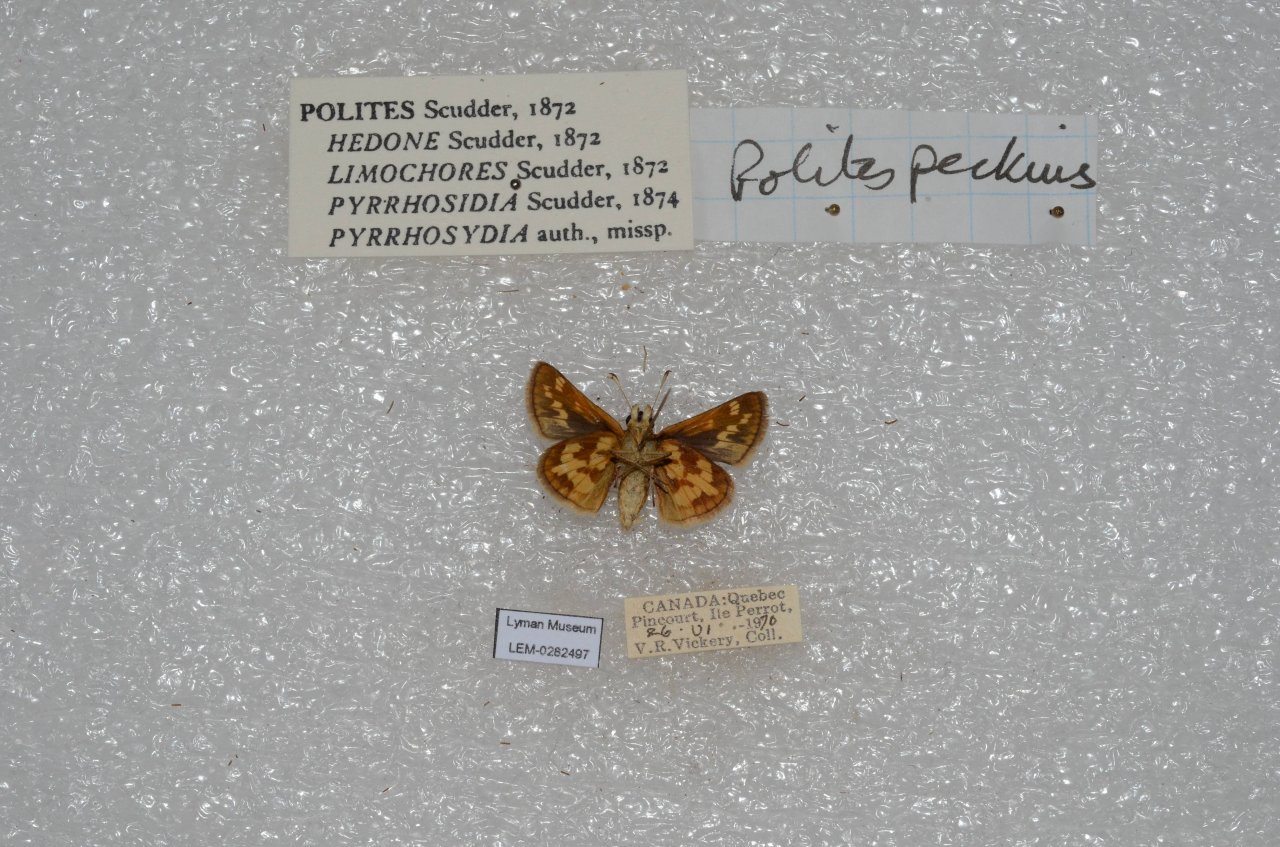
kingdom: Animalia
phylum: Arthropoda
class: Insecta
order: Lepidoptera
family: Hesperiidae
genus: Polites
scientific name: Polites coras
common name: Peck's Skipper
